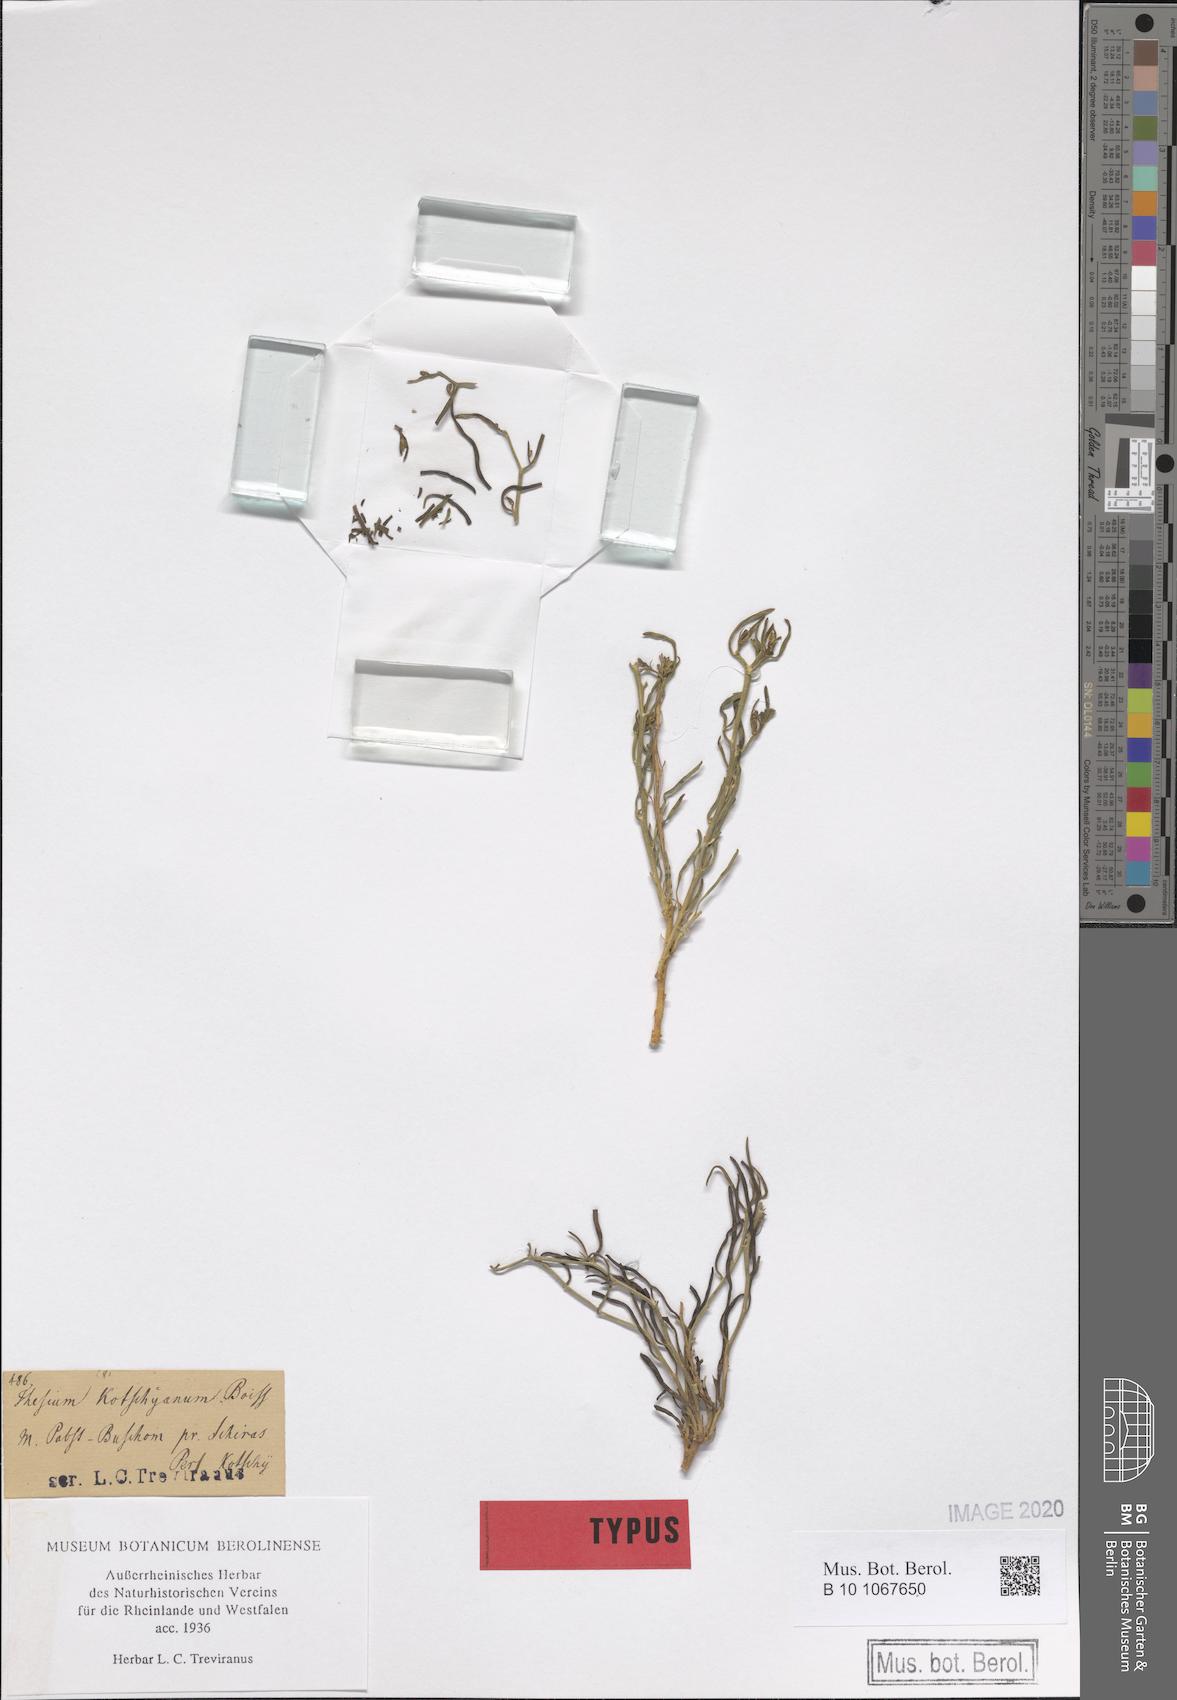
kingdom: Plantae
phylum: Tracheophyta
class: Magnoliopsida
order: Santalales
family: Thesiaceae
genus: Thesium
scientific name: Thesium kotschyanum
